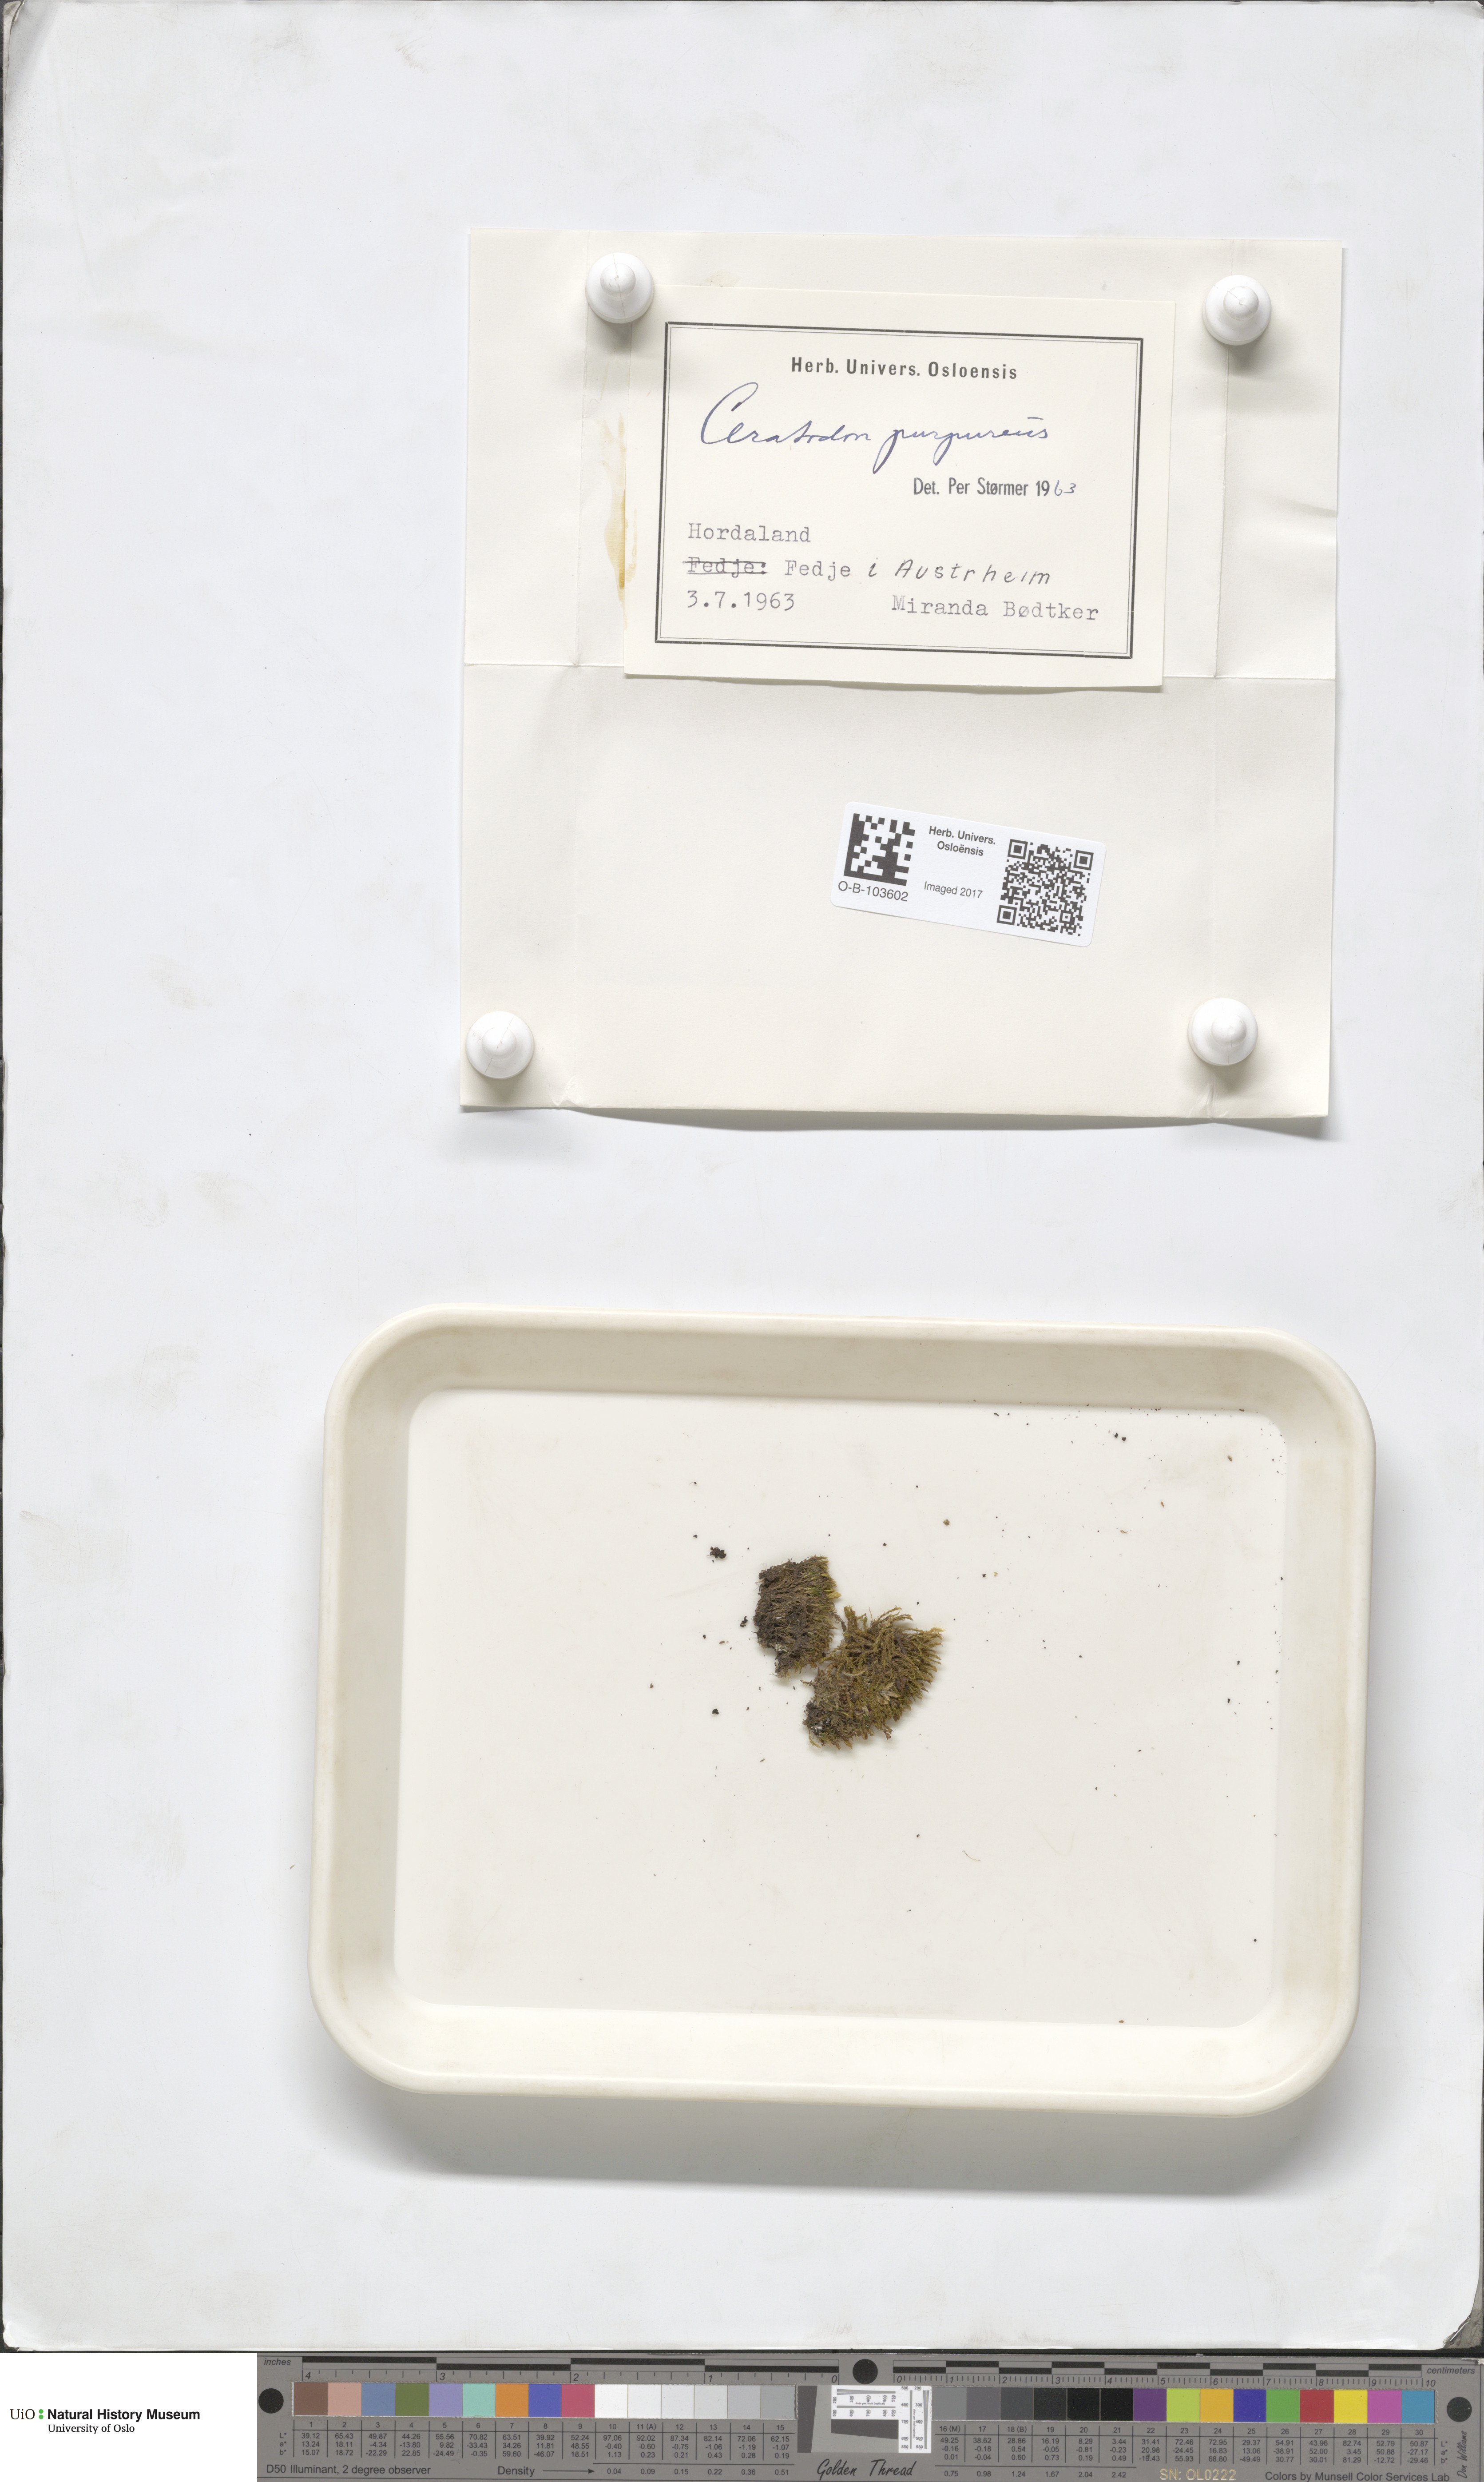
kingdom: Plantae
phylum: Bryophyta
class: Polytrichopsida
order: Polytrichales
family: Polytrichaceae
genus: Atrichum
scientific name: Atrichum undulatum
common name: Common smoothcap
